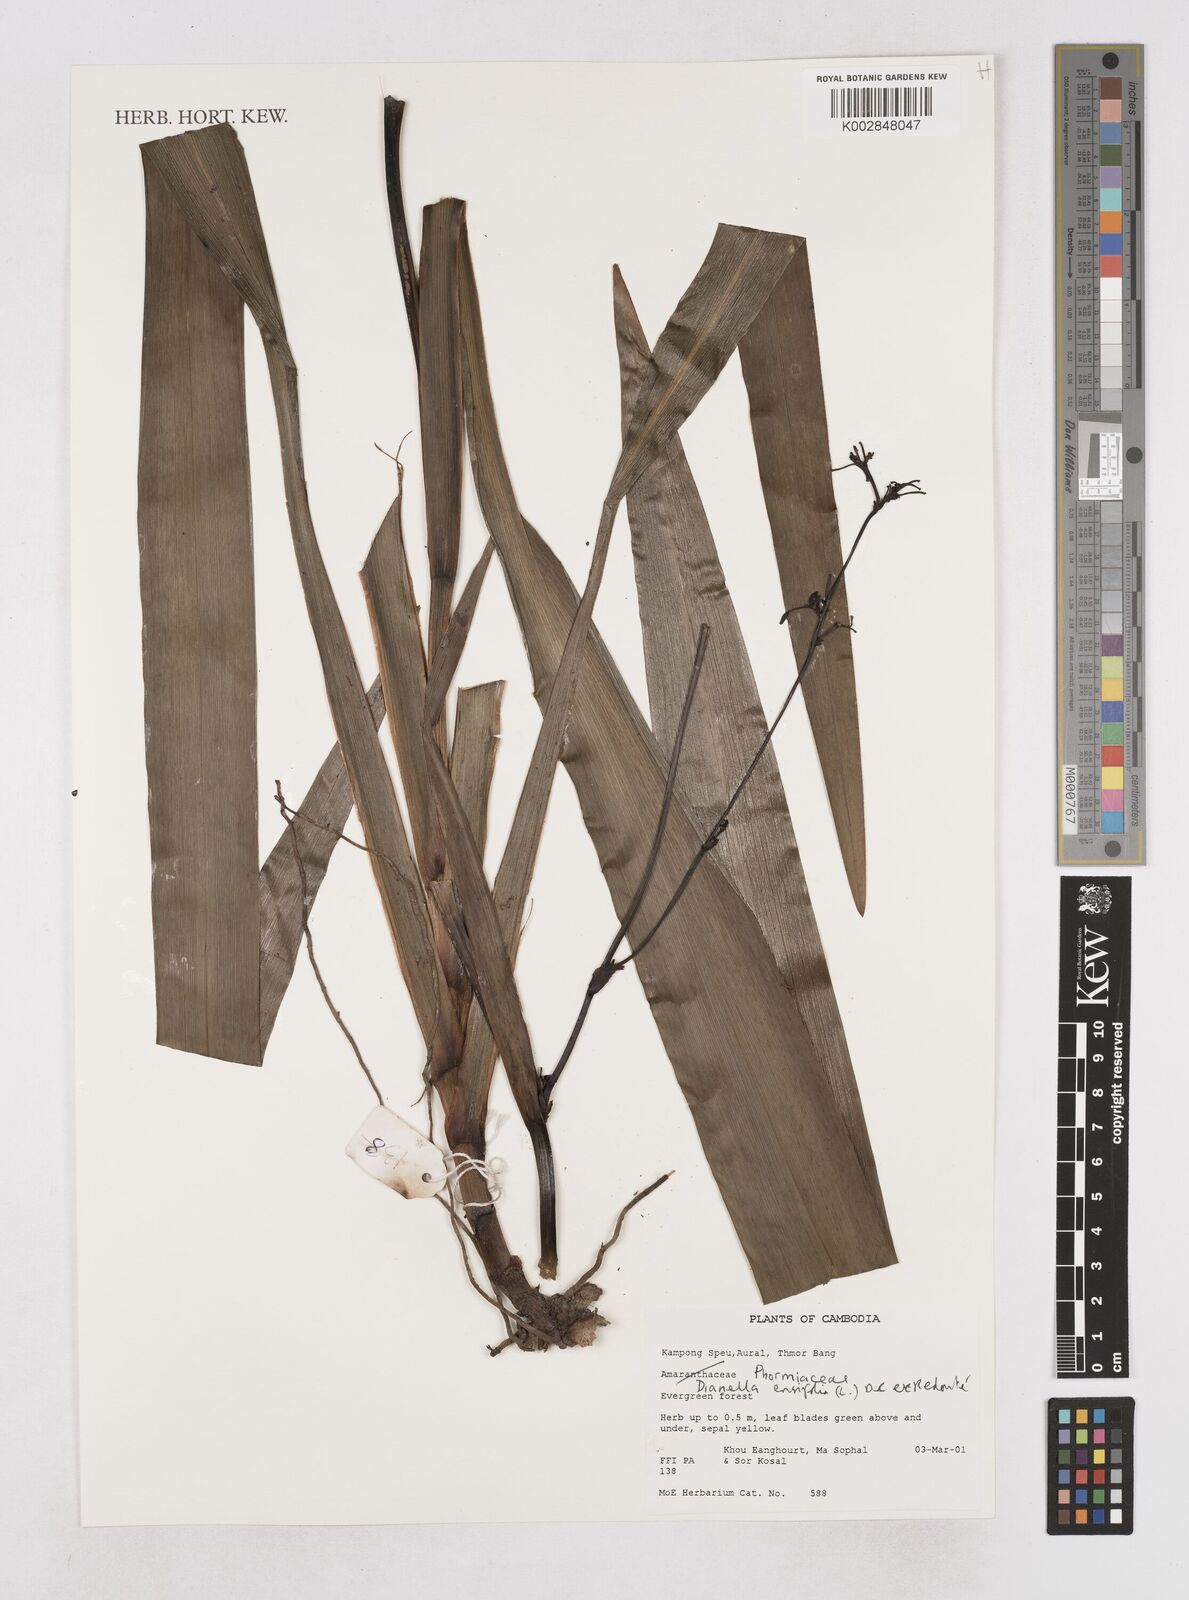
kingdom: Plantae
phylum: Tracheophyta
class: Liliopsida
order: Asparagales
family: Asphodelaceae
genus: Dianella
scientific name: Dianella ensifolia
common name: New zealand lilyplant
